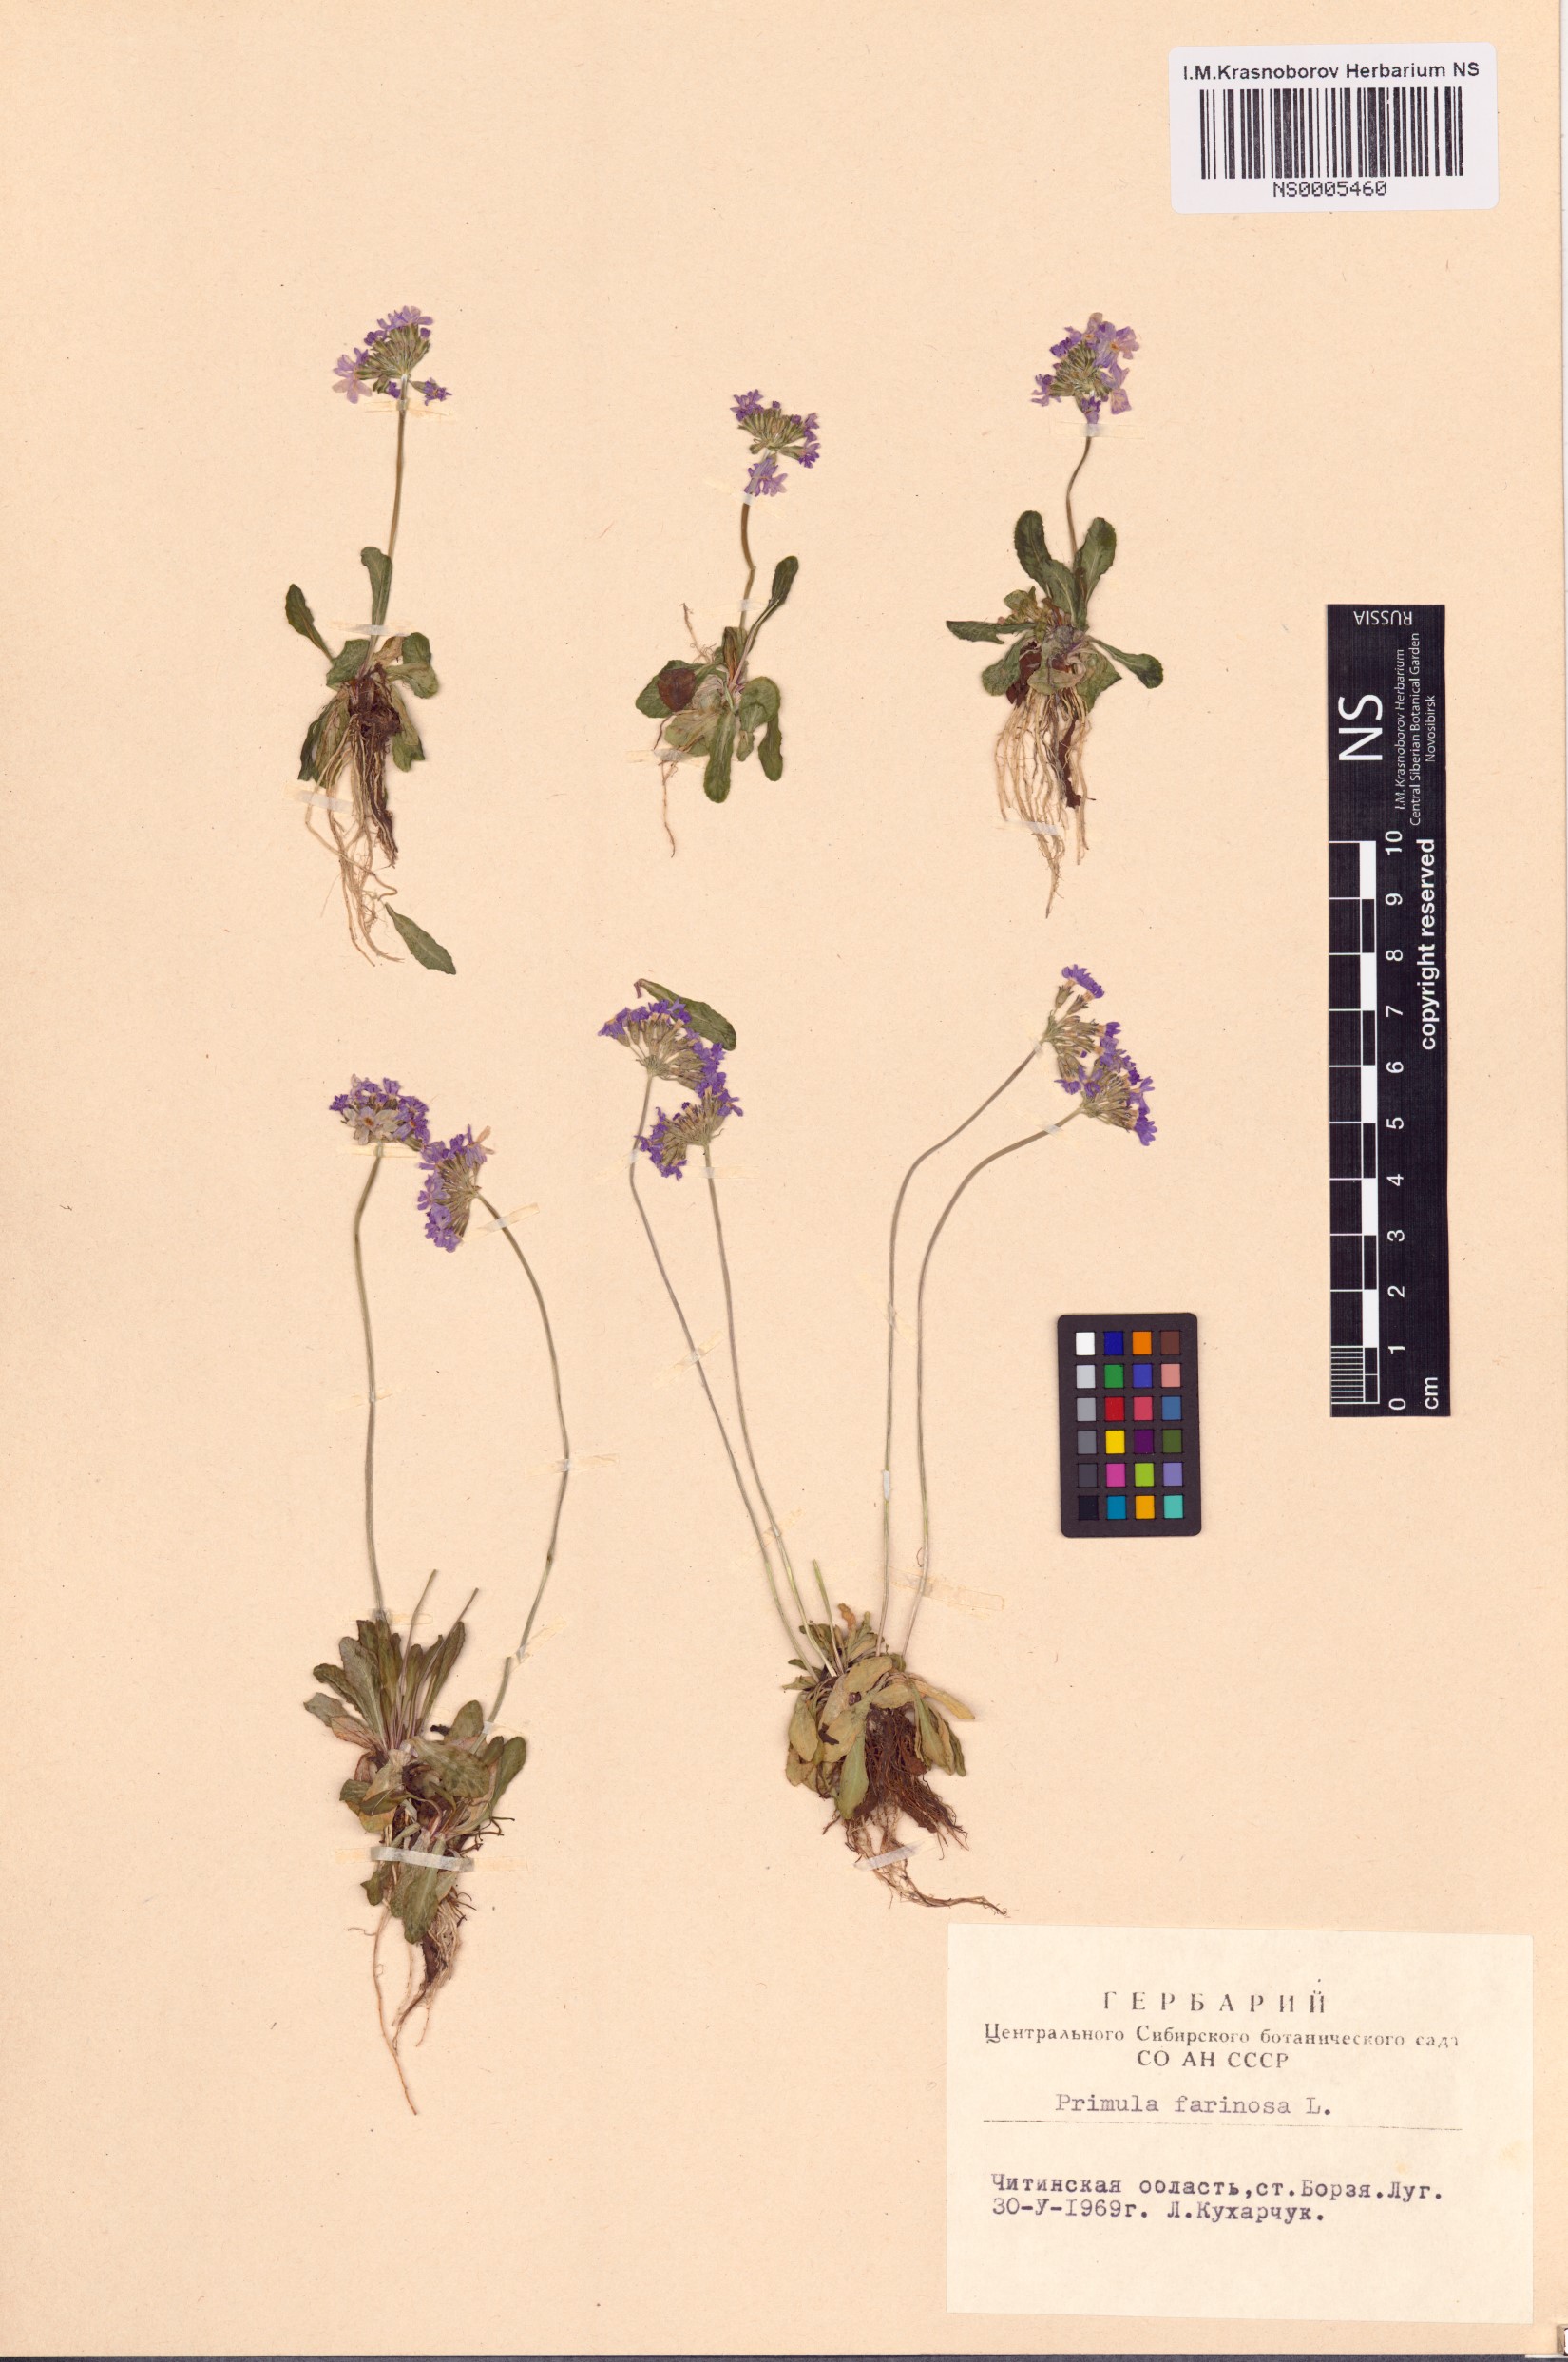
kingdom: Plantae
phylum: Tracheophyta
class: Magnoliopsida
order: Ericales
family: Primulaceae
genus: Primula
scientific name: Primula farinosa
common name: Bird's-eye primrose
